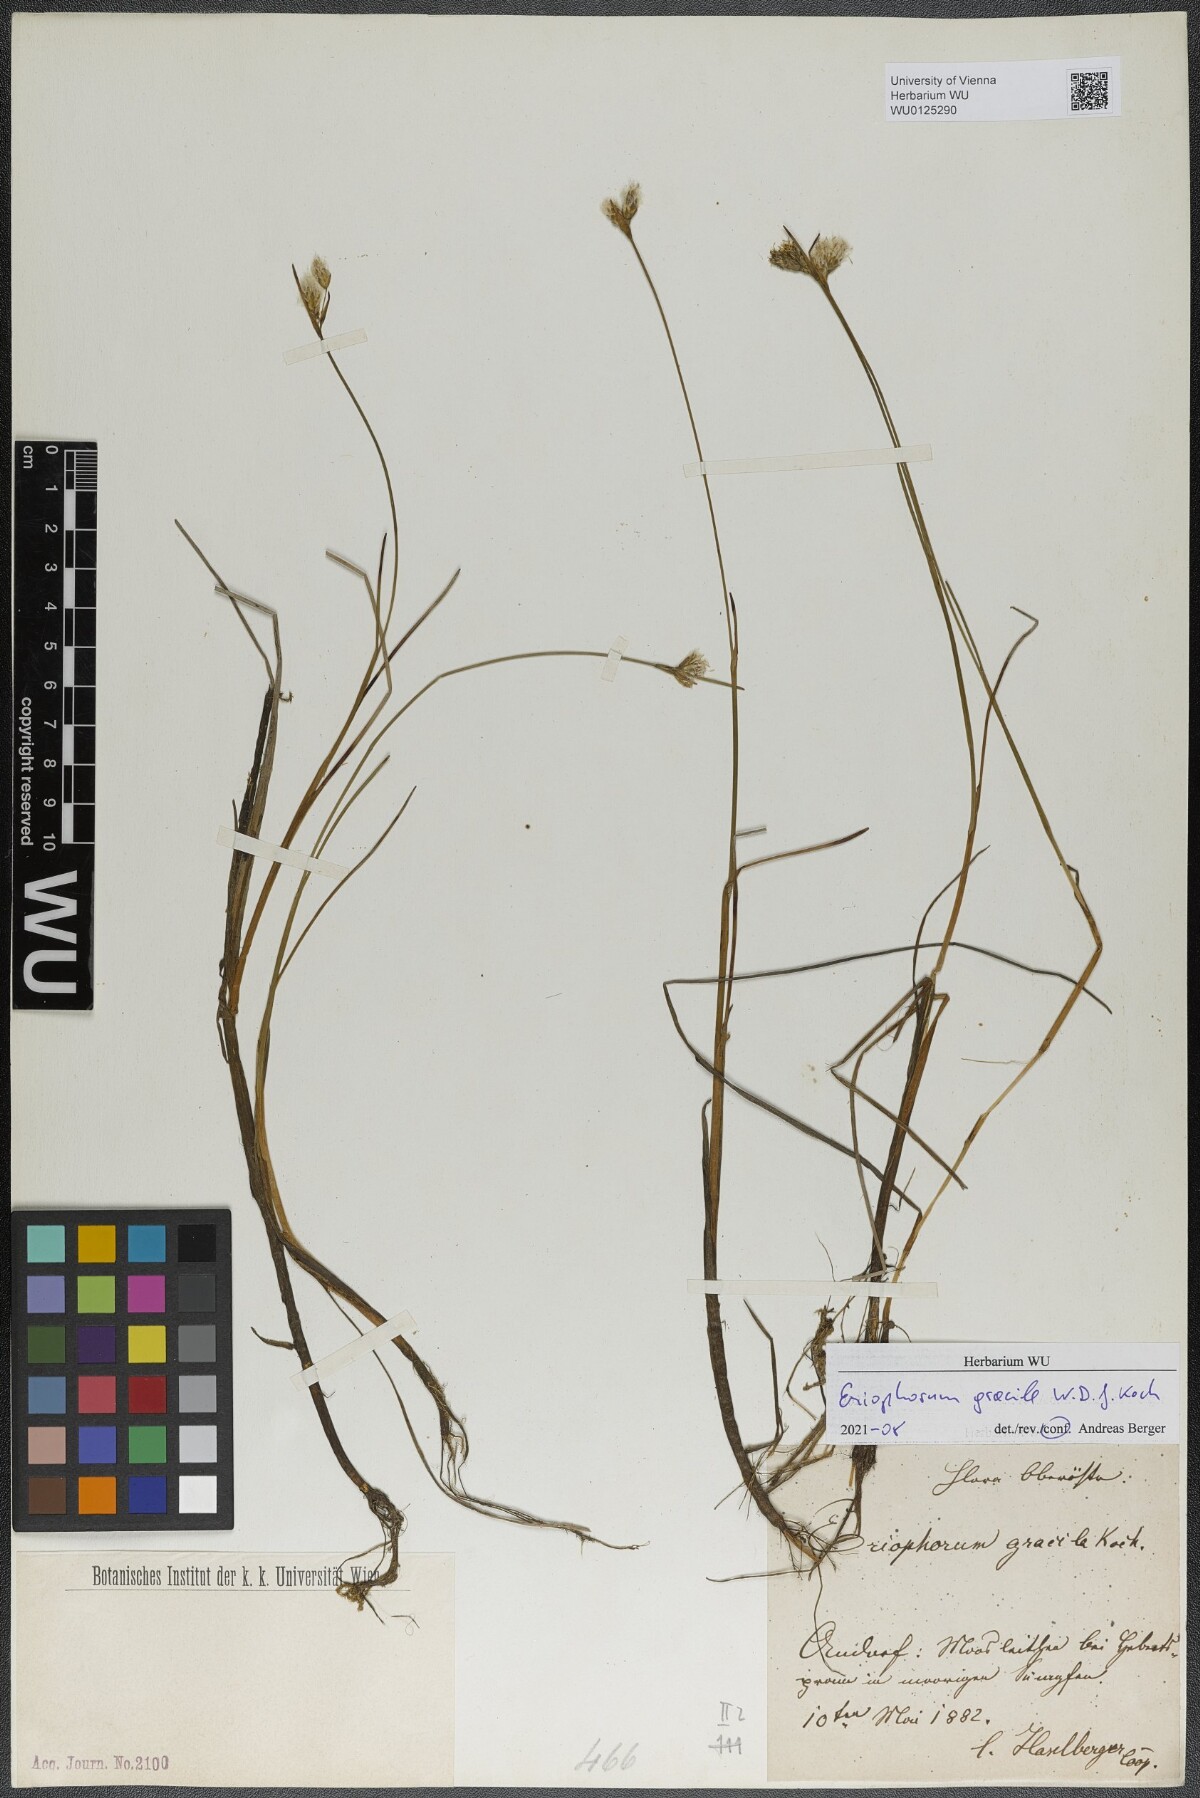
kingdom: Plantae
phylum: Tracheophyta
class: Liliopsida
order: Poales
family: Cyperaceae
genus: Eriophorum
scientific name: Eriophorum gracile
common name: Slender cottongrass
